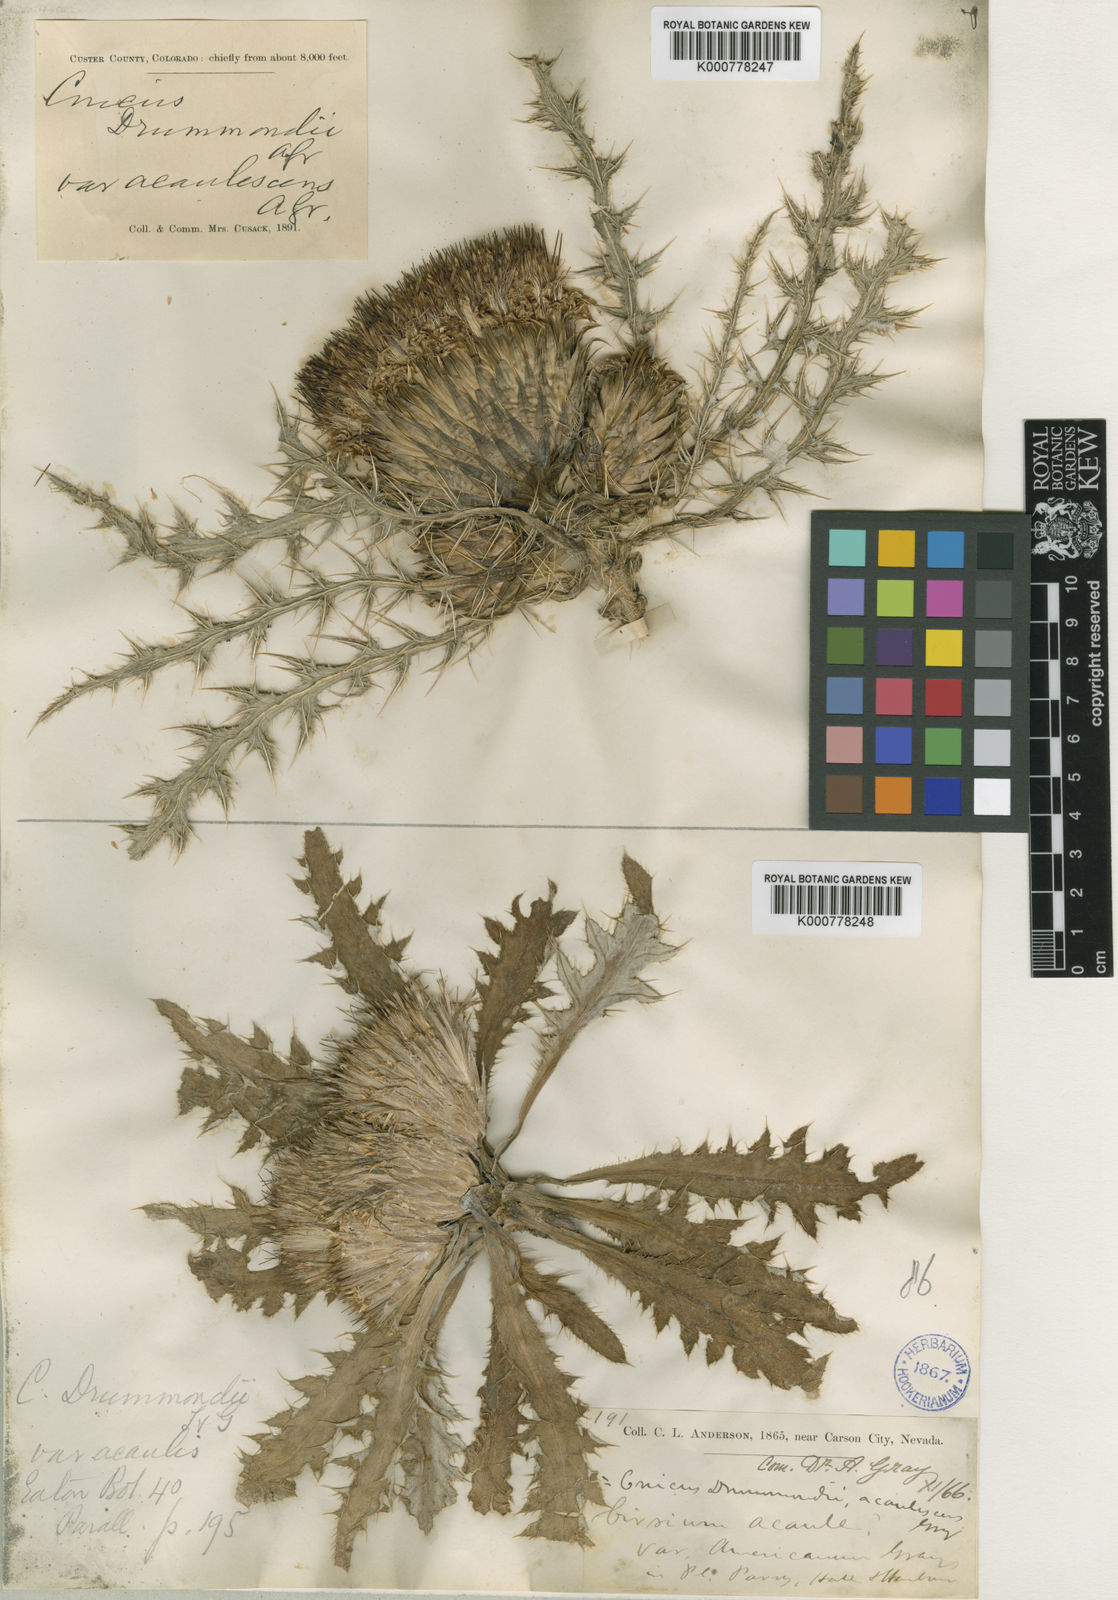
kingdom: Plantae
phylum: Tracheophyta
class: Magnoliopsida
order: Asterales
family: Asteraceae
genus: Cirsium
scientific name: Cirsium tioganum
